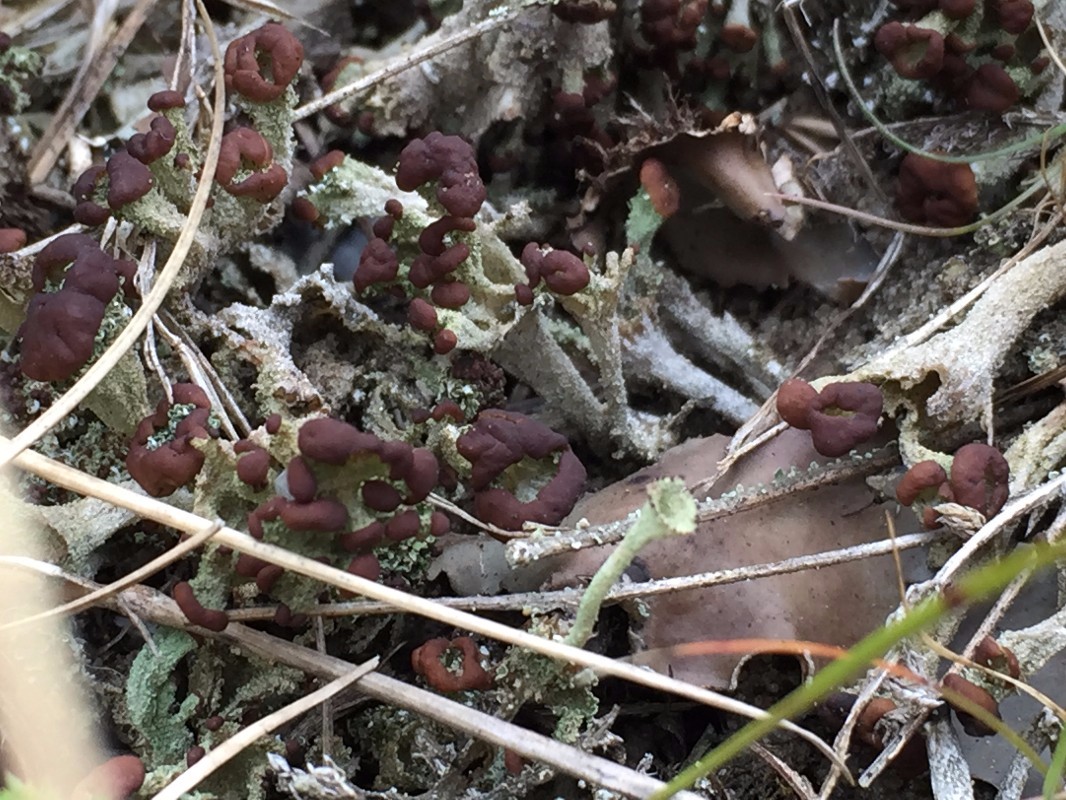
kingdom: Fungi
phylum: Ascomycota
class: Lecanoromycetes
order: Lecanorales
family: Cladoniaceae
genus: Cladonia
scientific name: Cladonia
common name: brungrøn bægerlav
